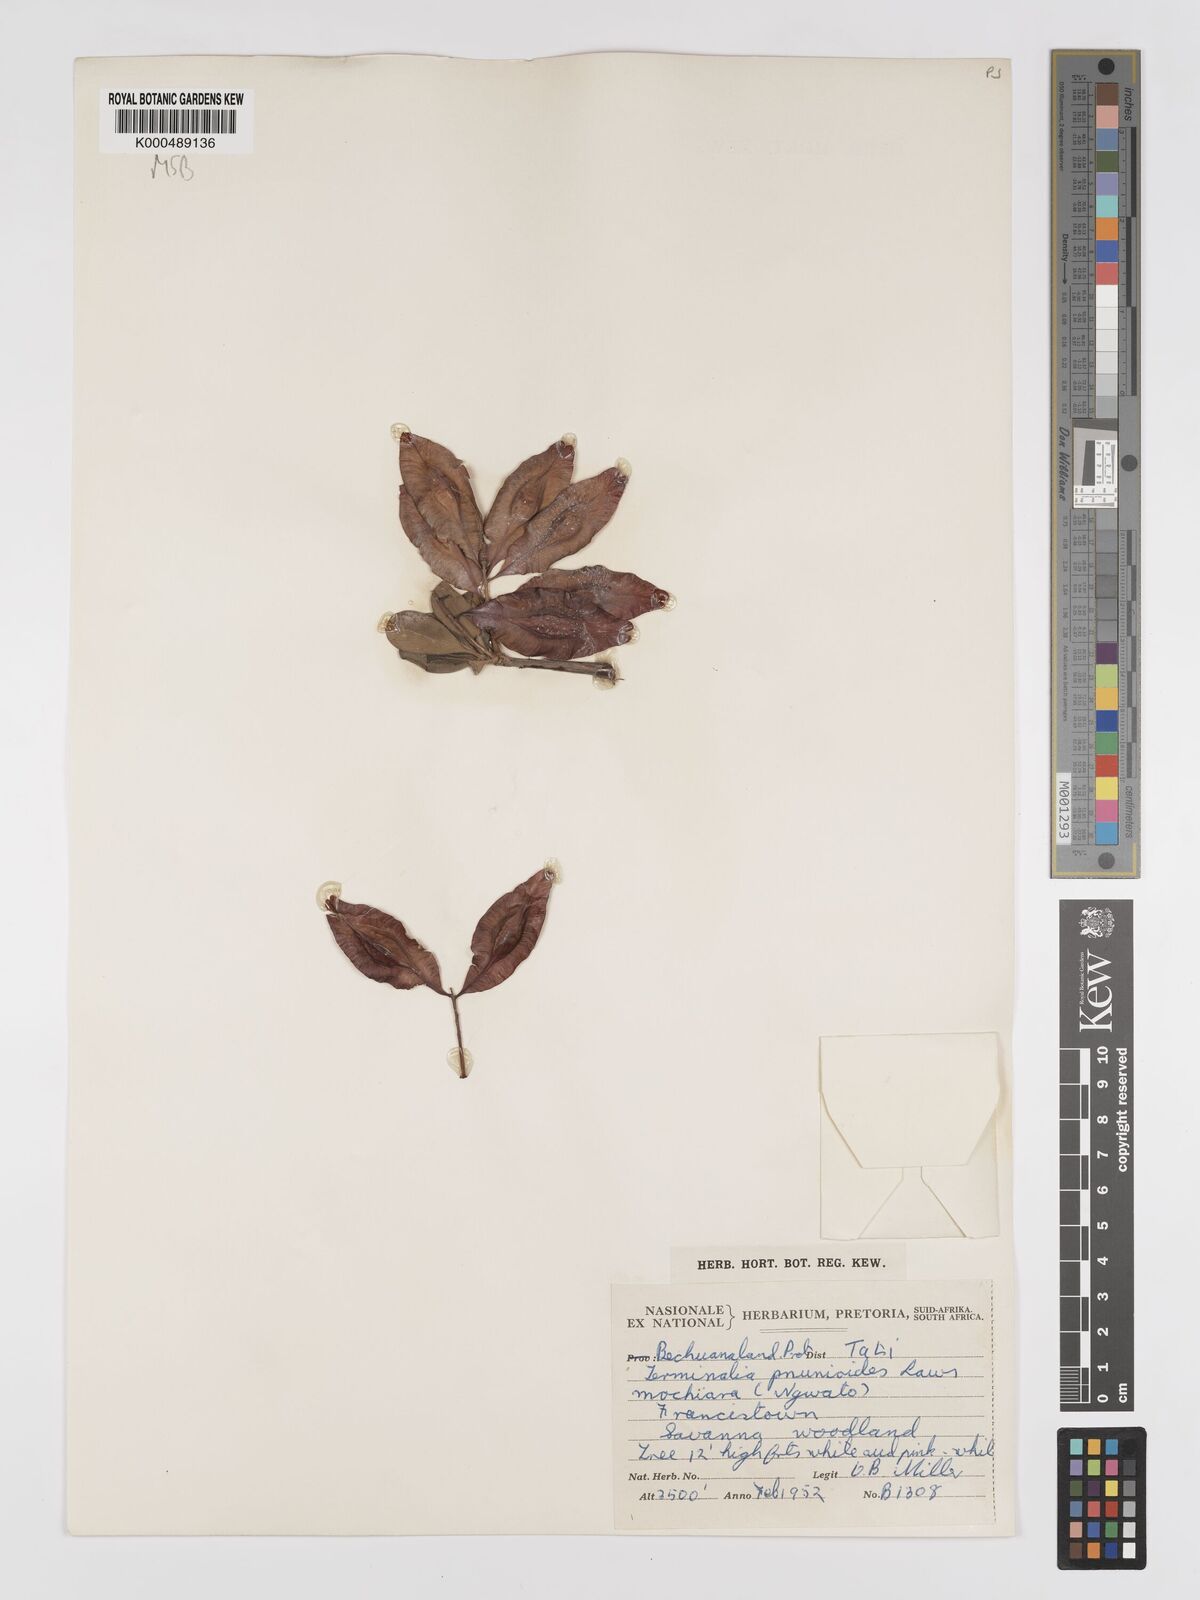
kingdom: Plantae
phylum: Tracheophyta
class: Magnoliopsida
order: Myrtales
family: Combretaceae
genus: Terminalia
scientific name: Terminalia prunioides
